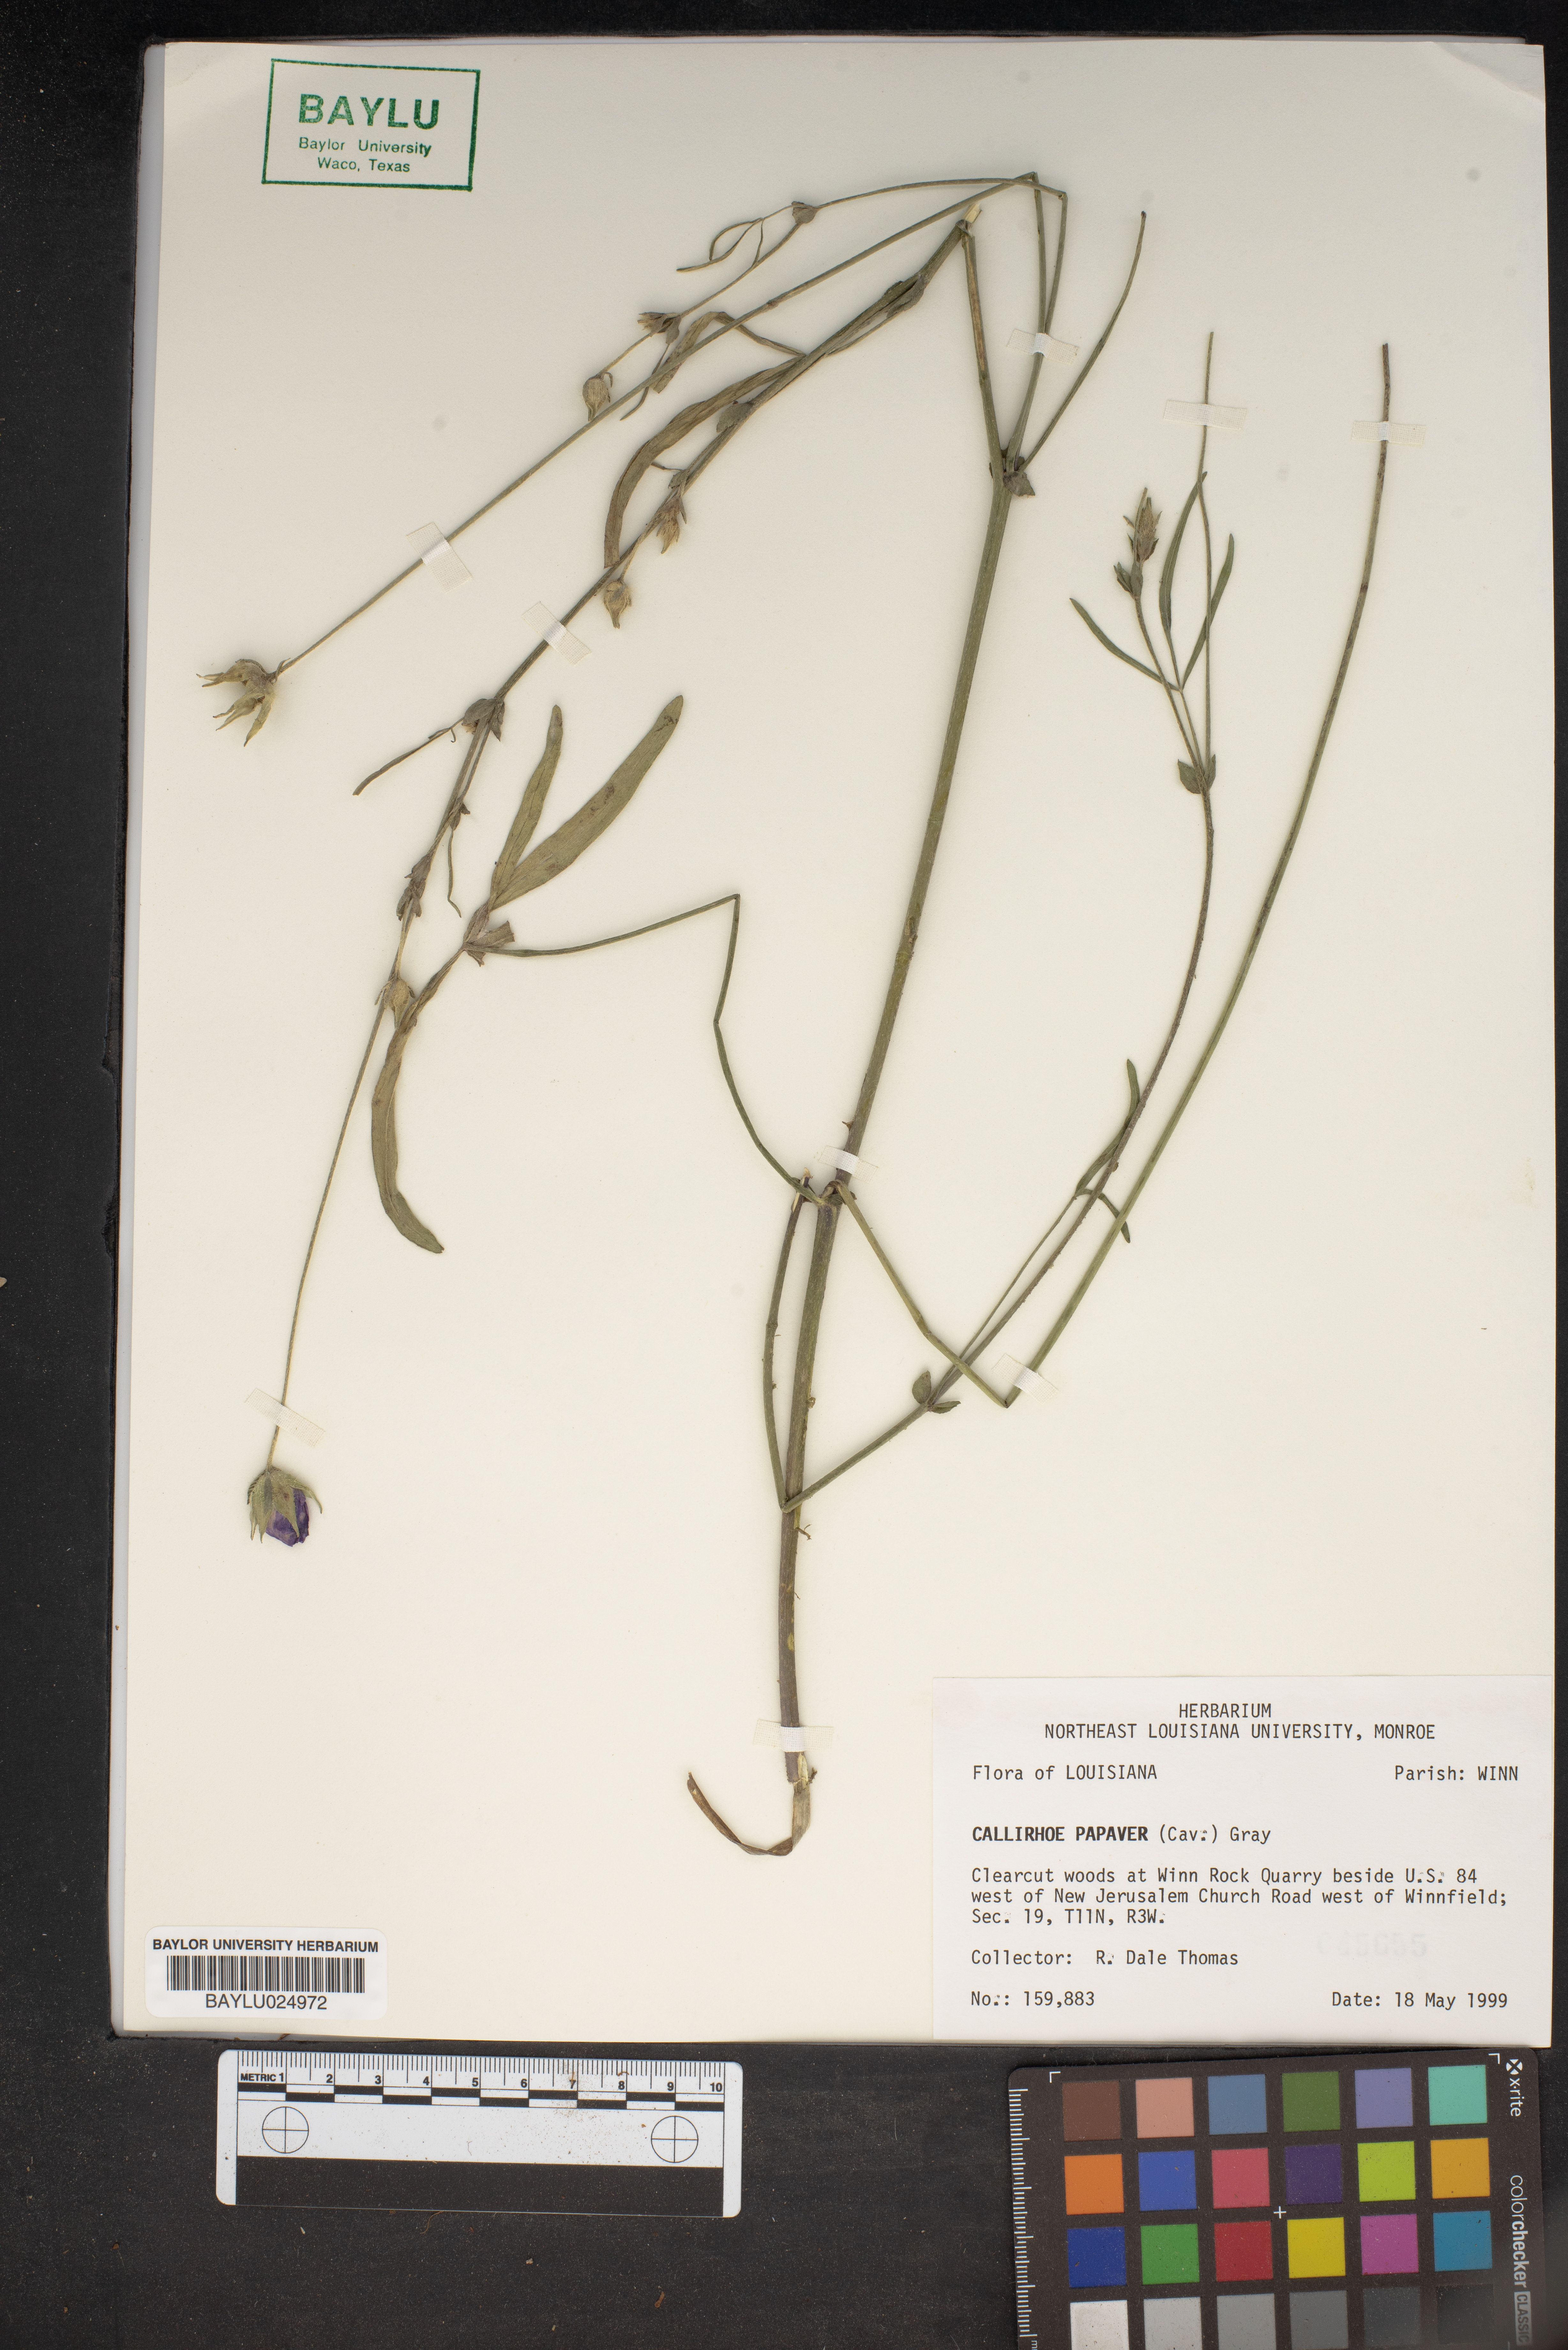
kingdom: Plantae
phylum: Tracheophyta
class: Magnoliopsida
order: Malvales
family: Malvaceae
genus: Callirhoe
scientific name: Callirhoe papaver
